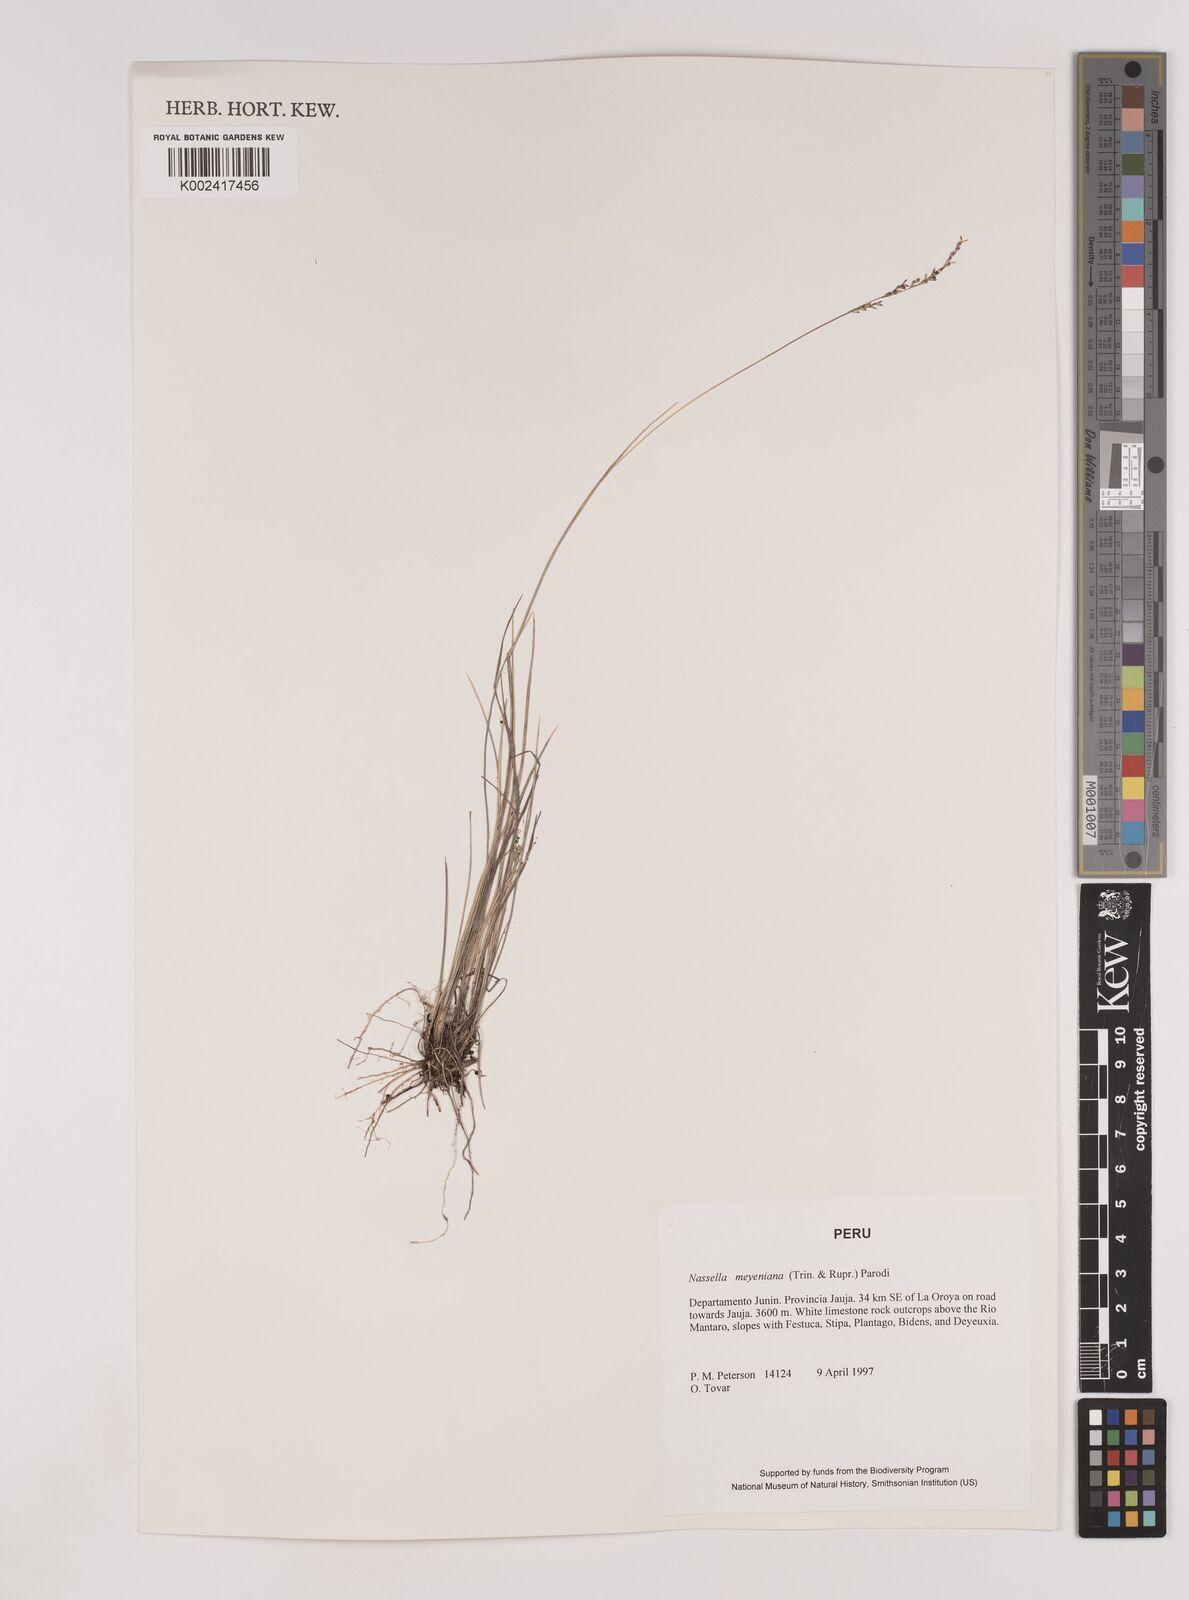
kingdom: Plantae
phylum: Tracheophyta
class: Liliopsida
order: Poales
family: Poaceae
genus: Nassella
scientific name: Nassella meyeniana
